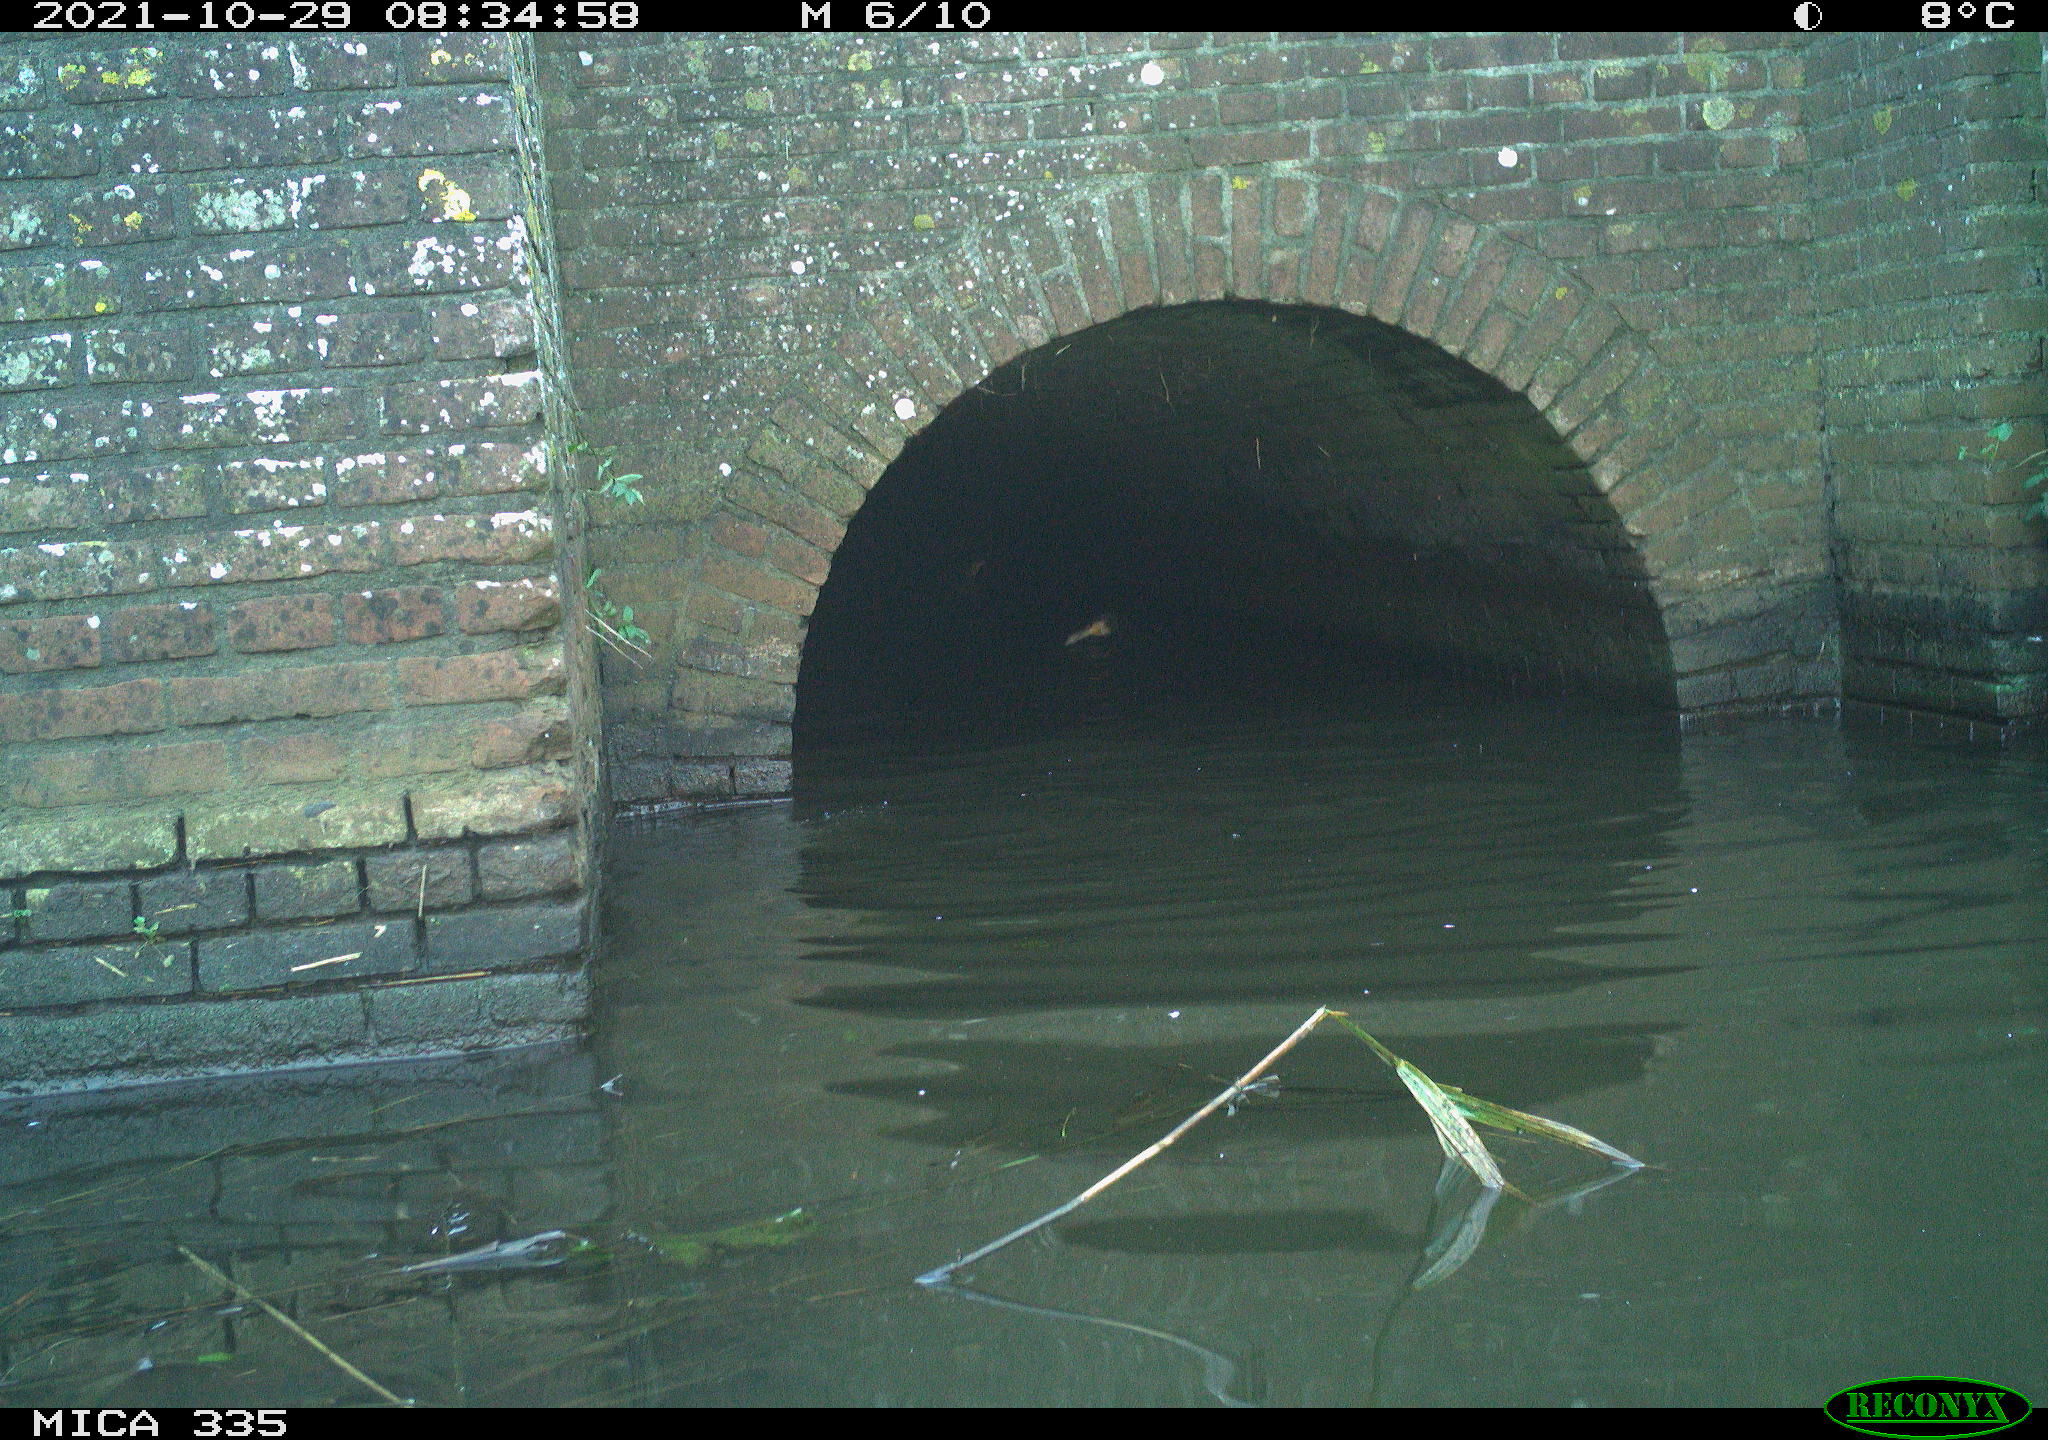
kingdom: Animalia
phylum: Chordata
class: Aves
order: Suliformes
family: Phalacrocoracidae
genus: Phalacrocorax
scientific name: Phalacrocorax carbo
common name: Great cormorant
